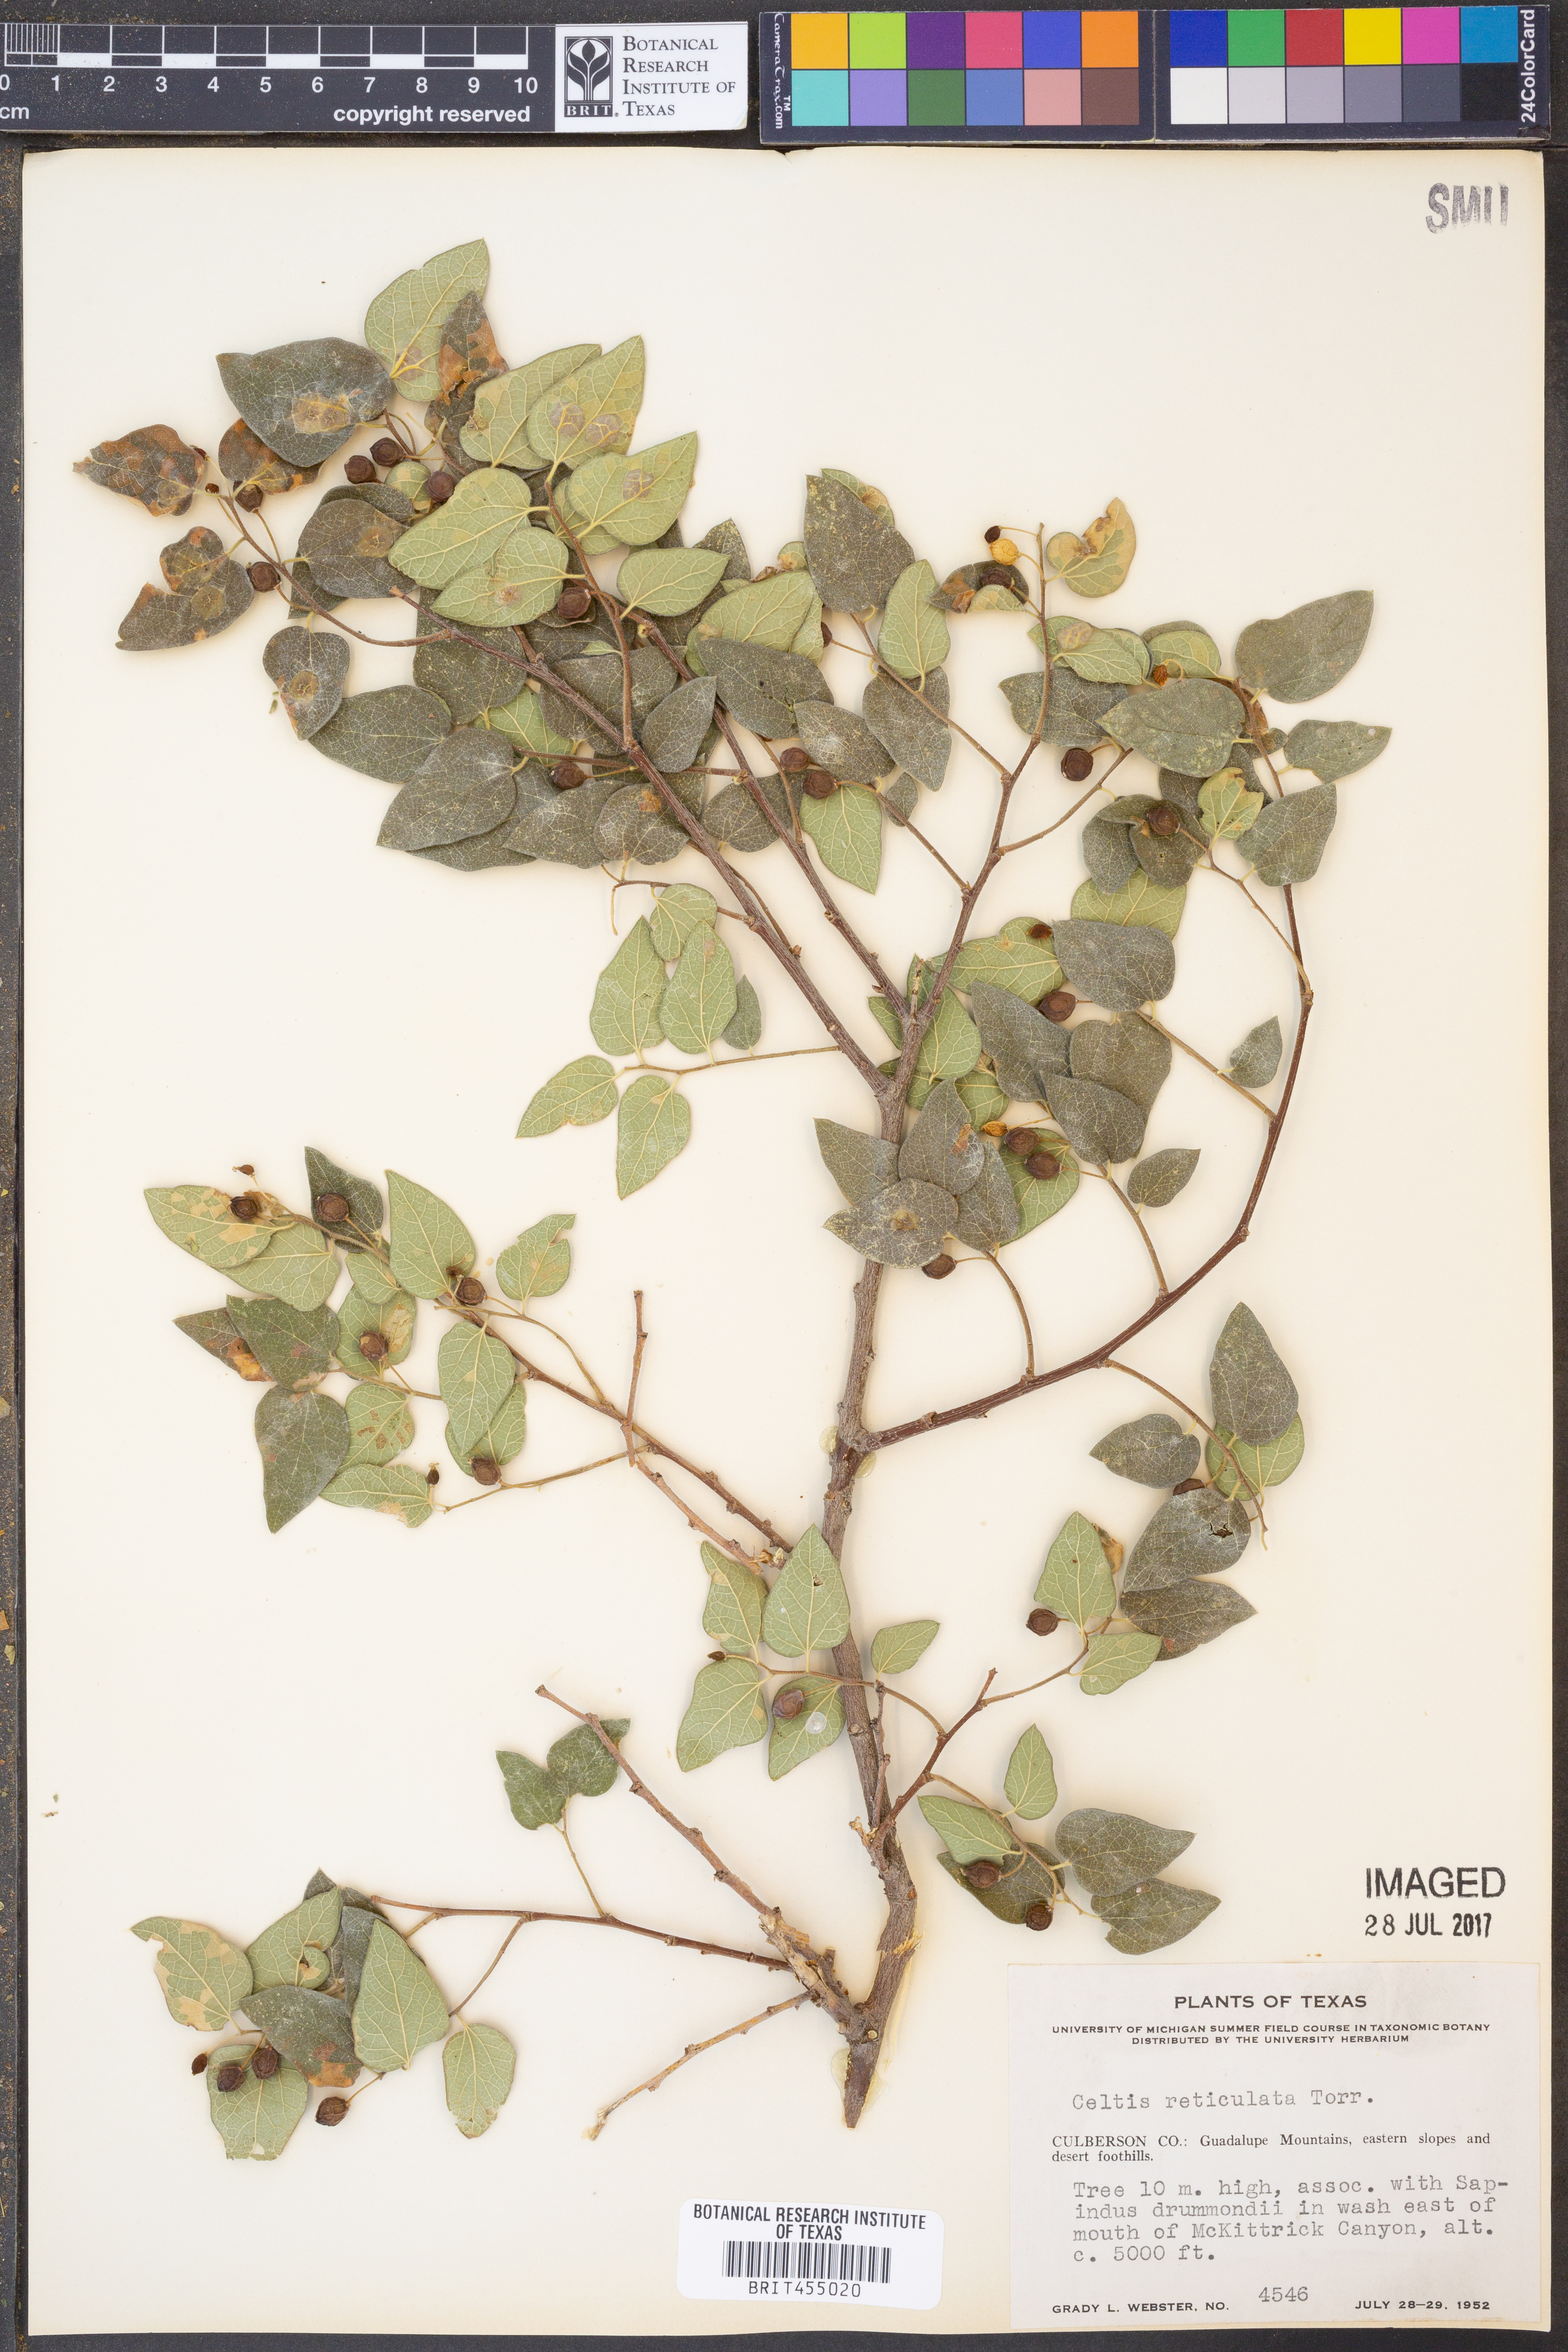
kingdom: Plantae
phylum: Tracheophyta
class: Magnoliopsida
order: Rosales
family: Cannabaceae
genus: Celtis
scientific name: Celtis reticulata
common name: Netleaf hackberry
